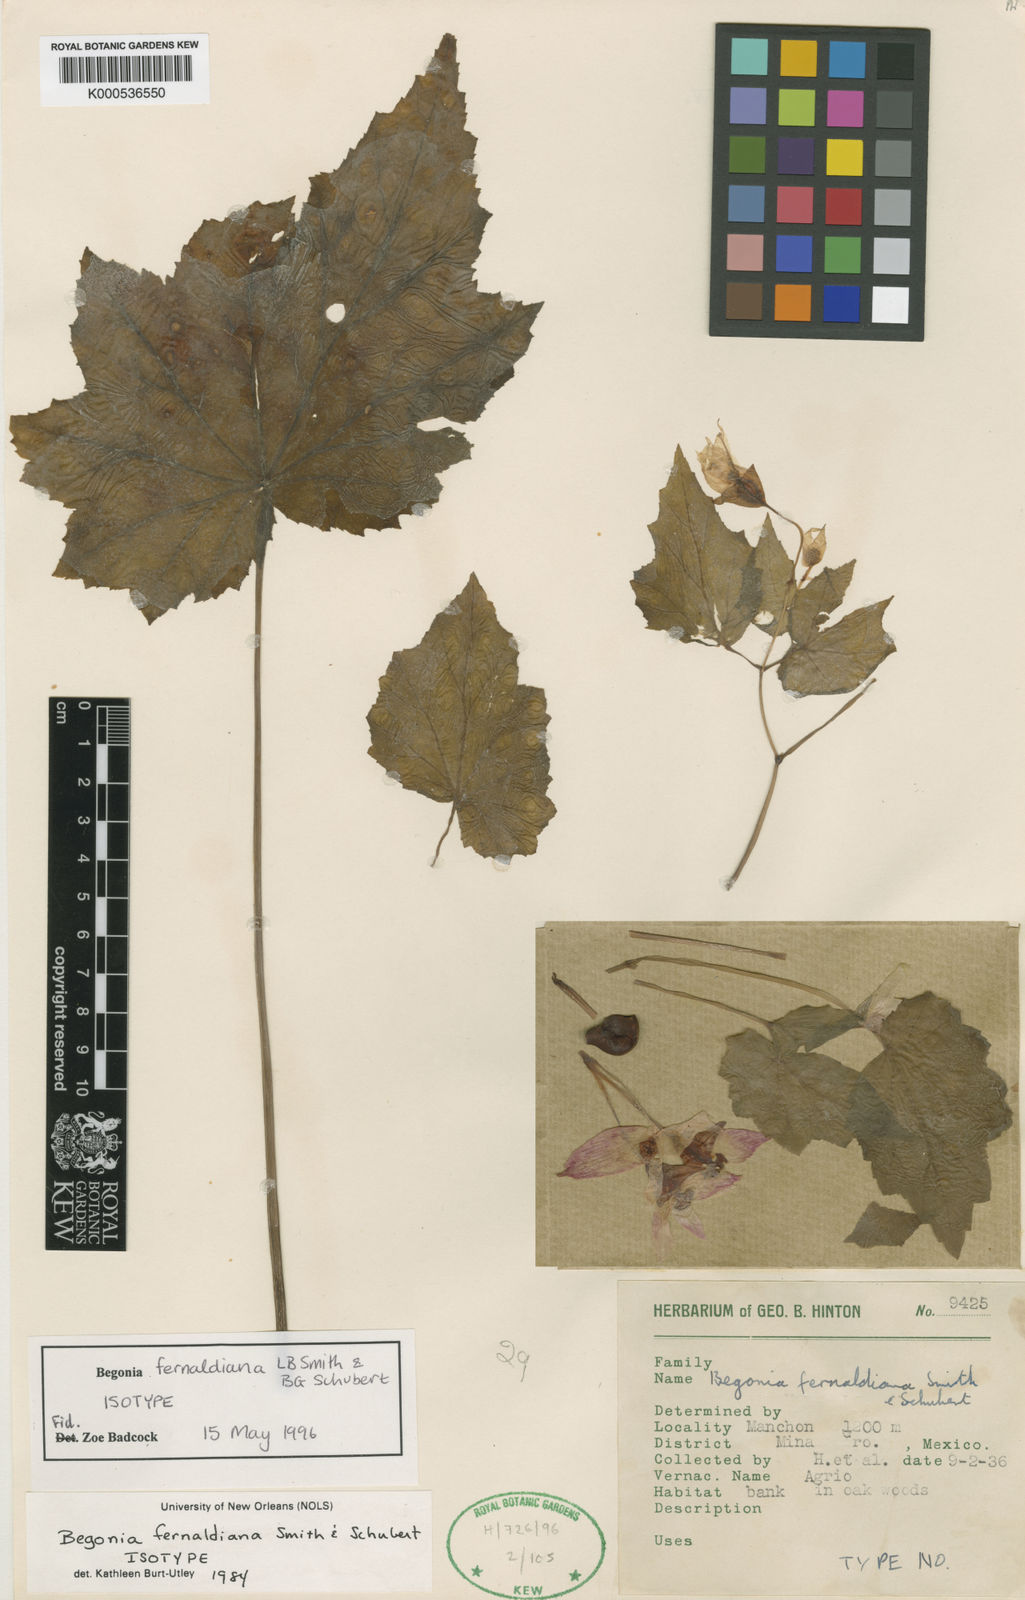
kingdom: Plantae
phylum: Tracheophyta
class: Magnoliopsida
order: Cucurbitales
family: Begoniaceae
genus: Begonia
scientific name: Begonia fernaldiana
